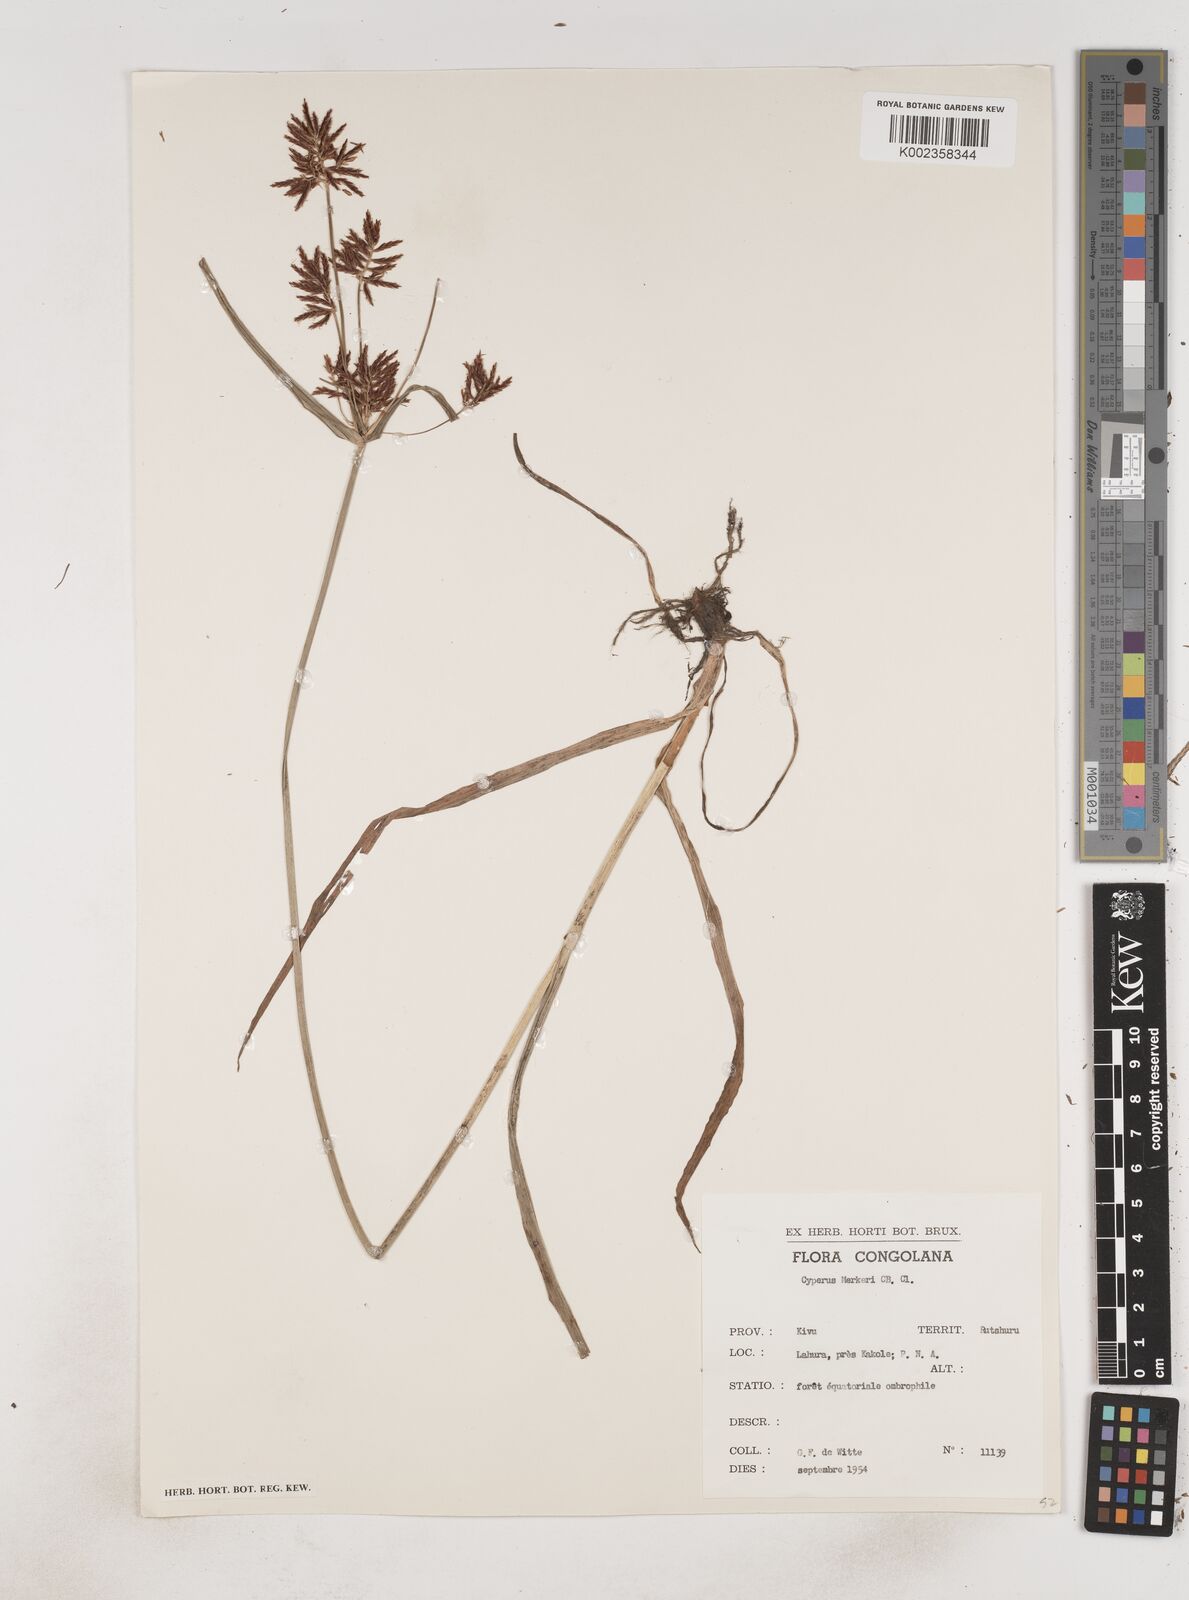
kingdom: Plantae
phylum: Tracheophyta
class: Liliopsida
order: Poales
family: Cyperaceae
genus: Cyperus
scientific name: Cyperus tuberosus
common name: Nut grass
